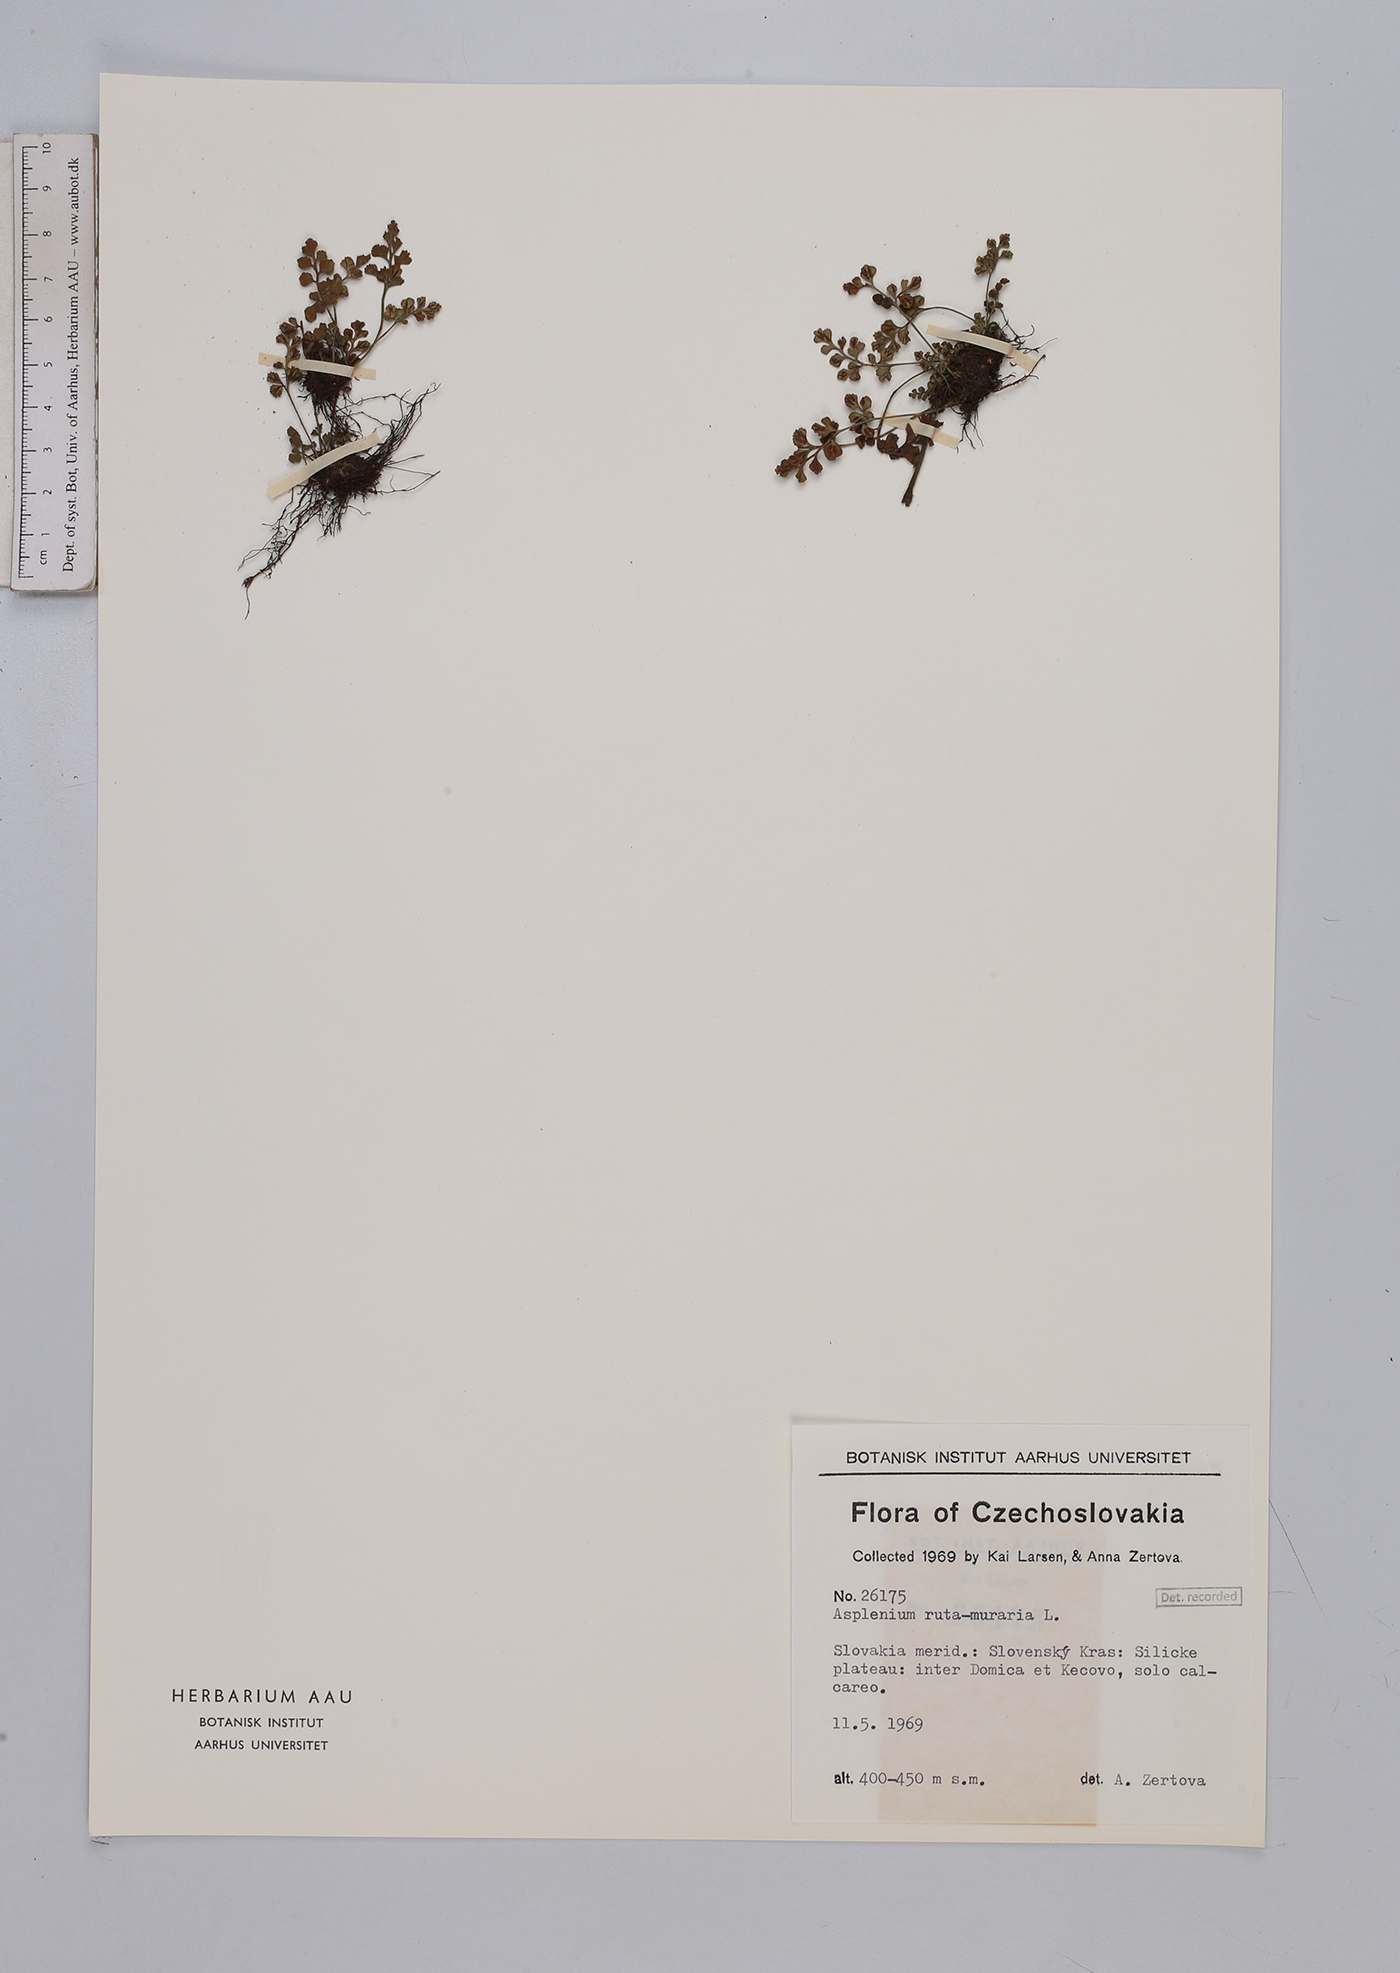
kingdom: Plantae
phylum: Tracheophyta
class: Polypodiopsida
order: Polypodiales
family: Aspleniaceae
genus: Asplenium
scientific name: Asplenium ruta-muraria
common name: Wall-rue
